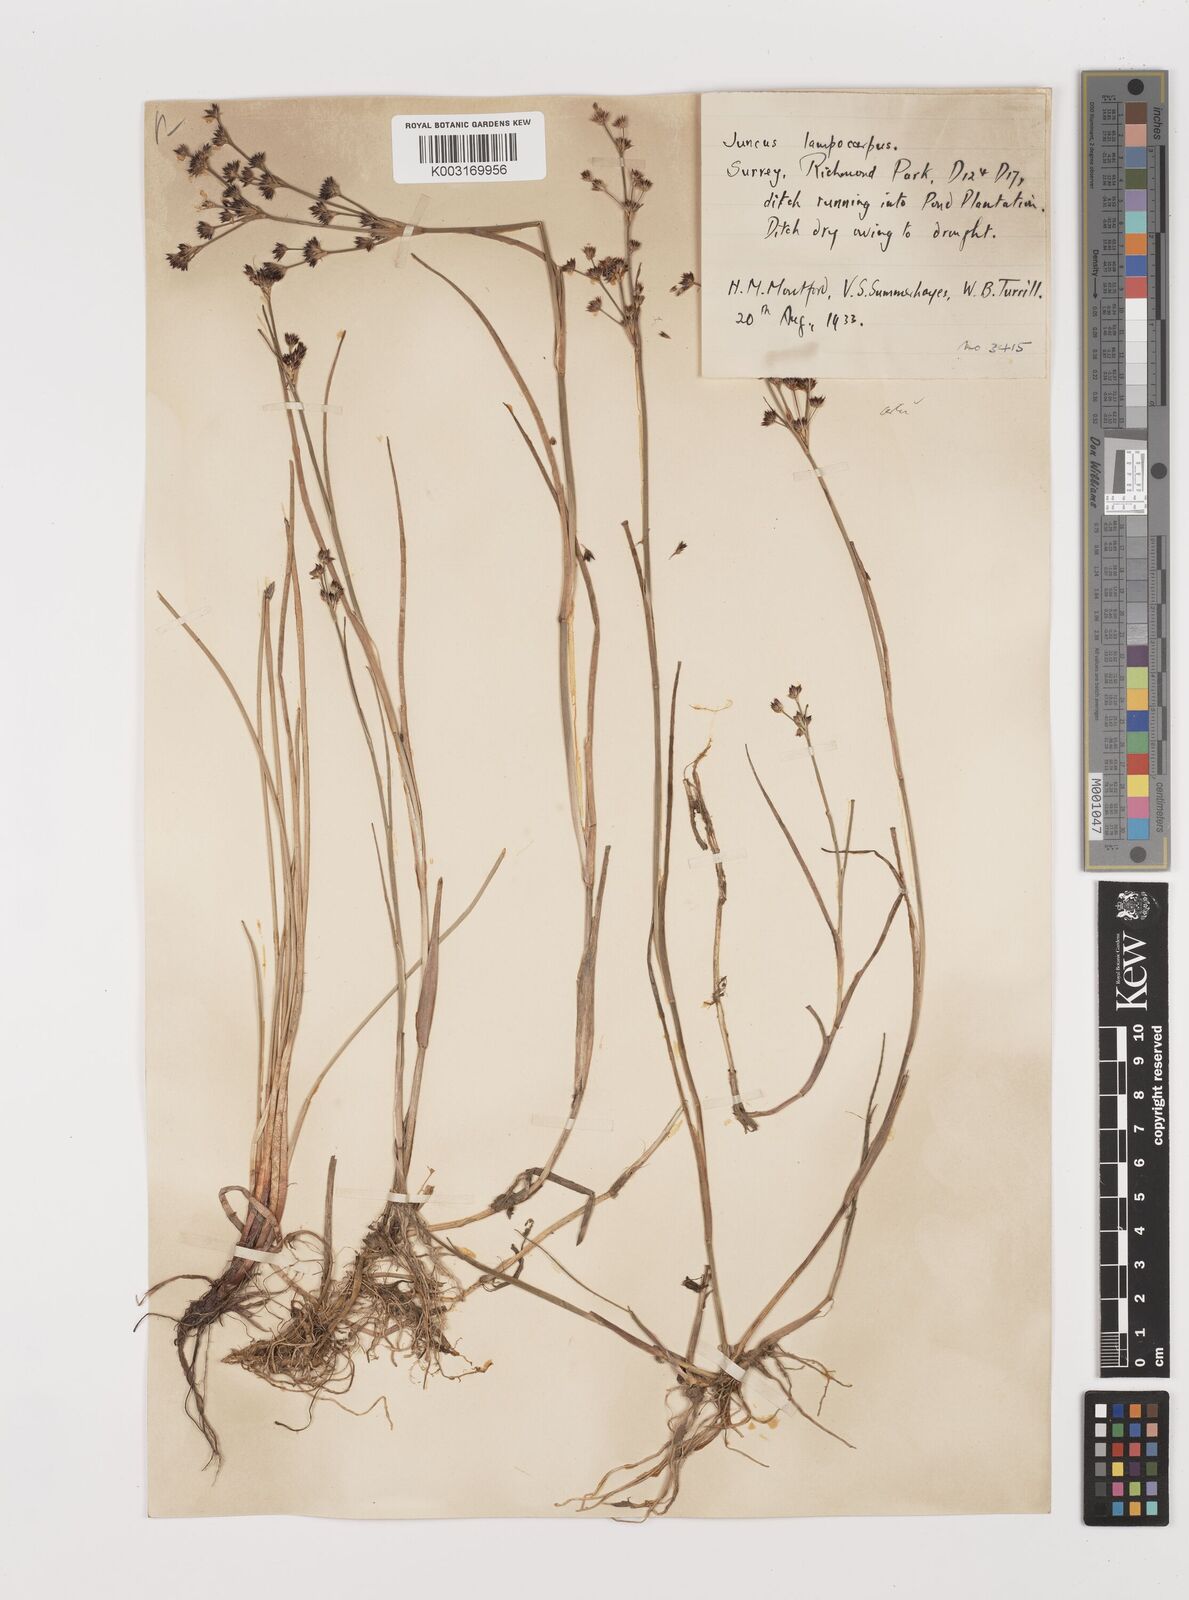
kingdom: Plantae
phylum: Tracheophyta
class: Liliopsida
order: Poales
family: Juncaceae
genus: Juncus
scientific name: Juncus articulatus
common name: Jointed rush
